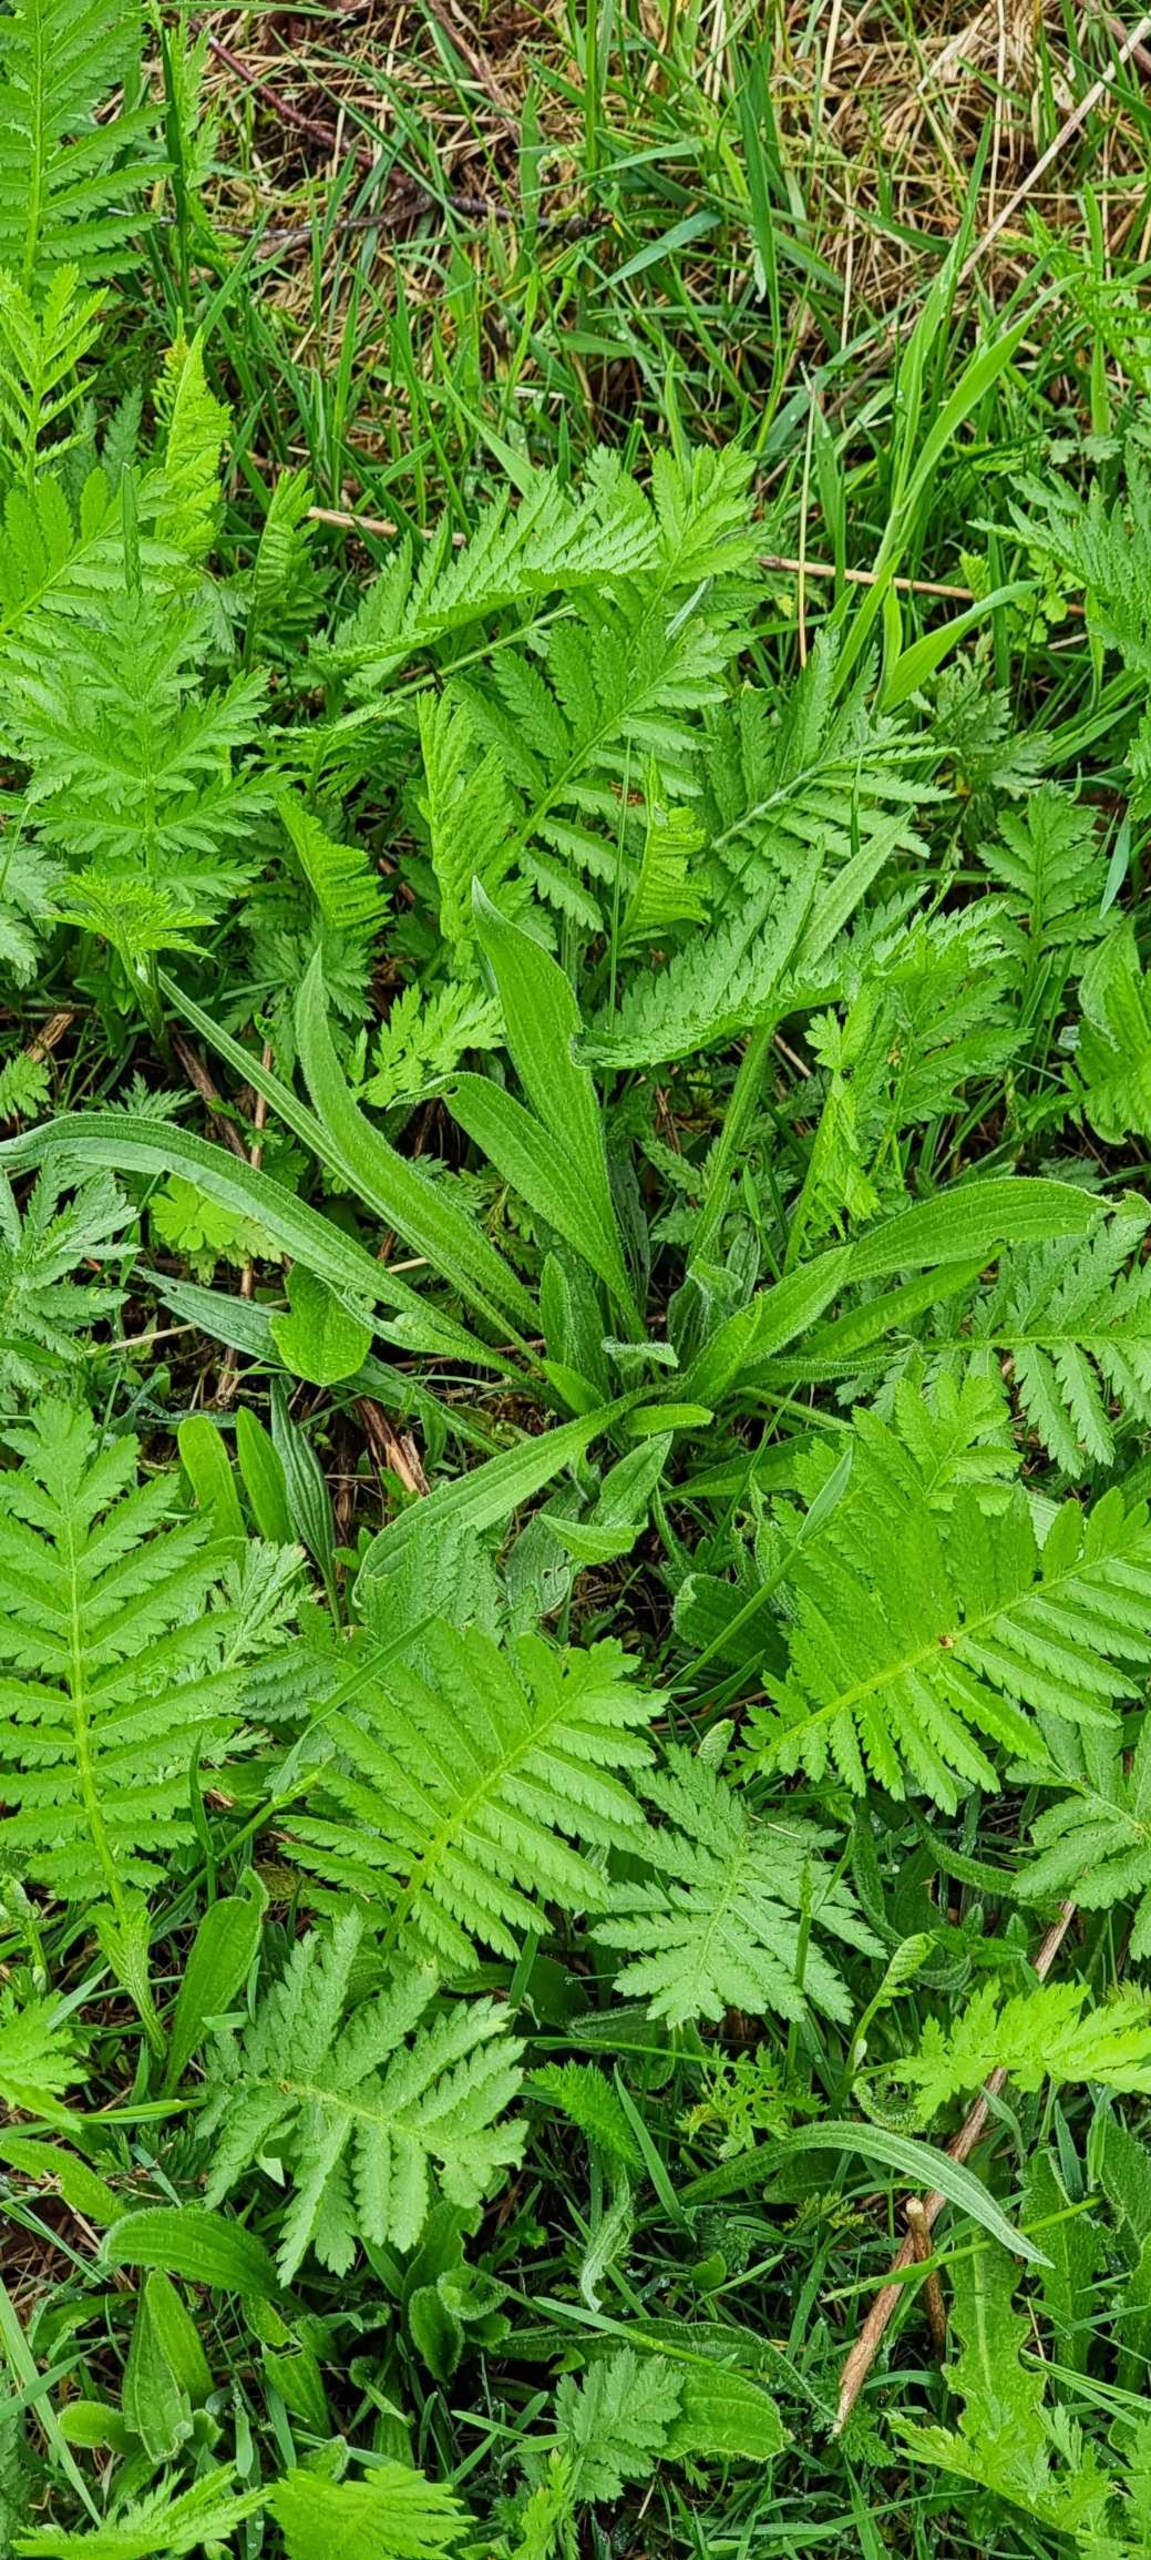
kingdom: Plantae
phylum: Tracheophyta
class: Magnoliopsida
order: Asterales
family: Asteraceae
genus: Tanacetum
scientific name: Tanacetum vulgare
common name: Rejnfan
